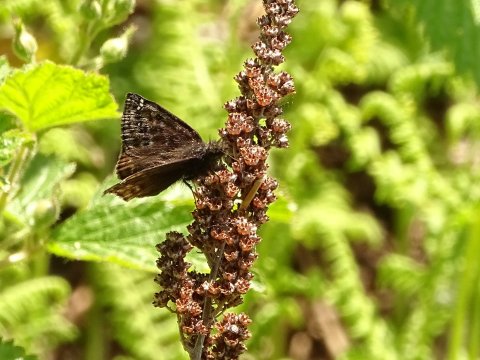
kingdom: Animalia
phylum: Arthropoda
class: Insecta
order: Lepidoptera
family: Hesperiidae
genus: Gesta
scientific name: Gesta
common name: Wild Indigo Duskywing
